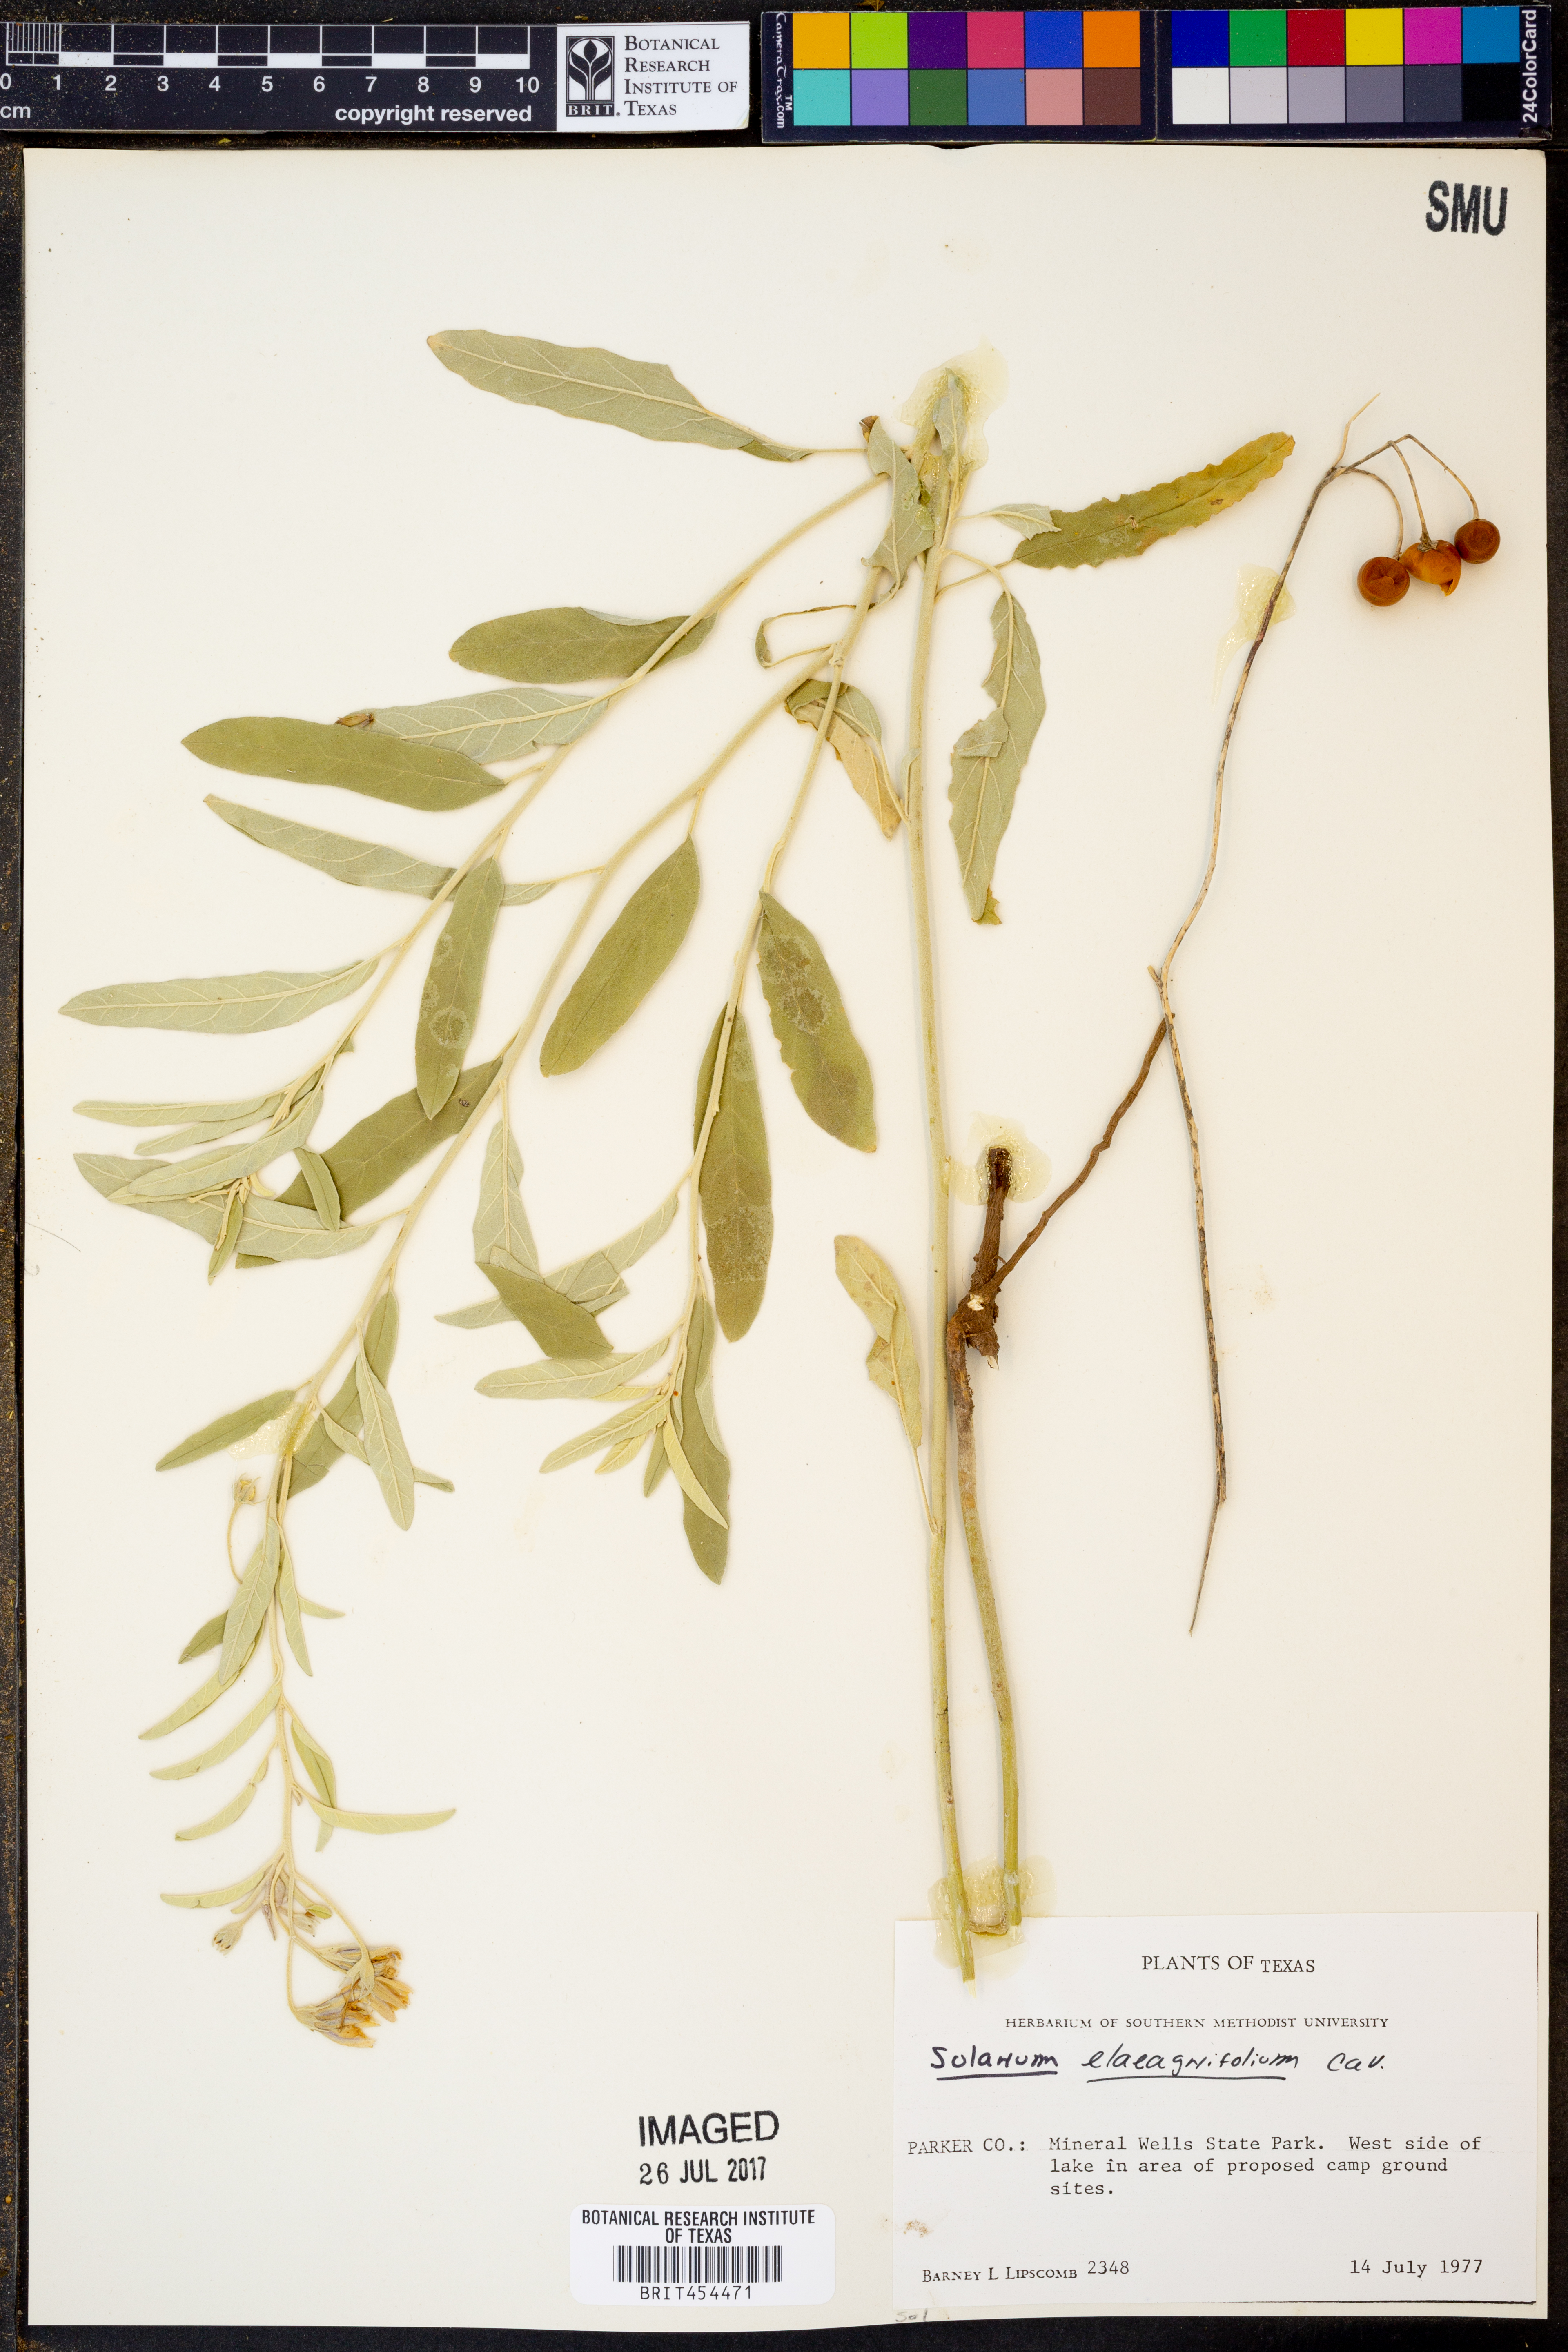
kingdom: Plantae
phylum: Tracheophyta
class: Magnoliopsida
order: Solanales
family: Solanaceae
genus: Solanum
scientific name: Solanum elaeagnifolium
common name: Silverleaf nightshade
